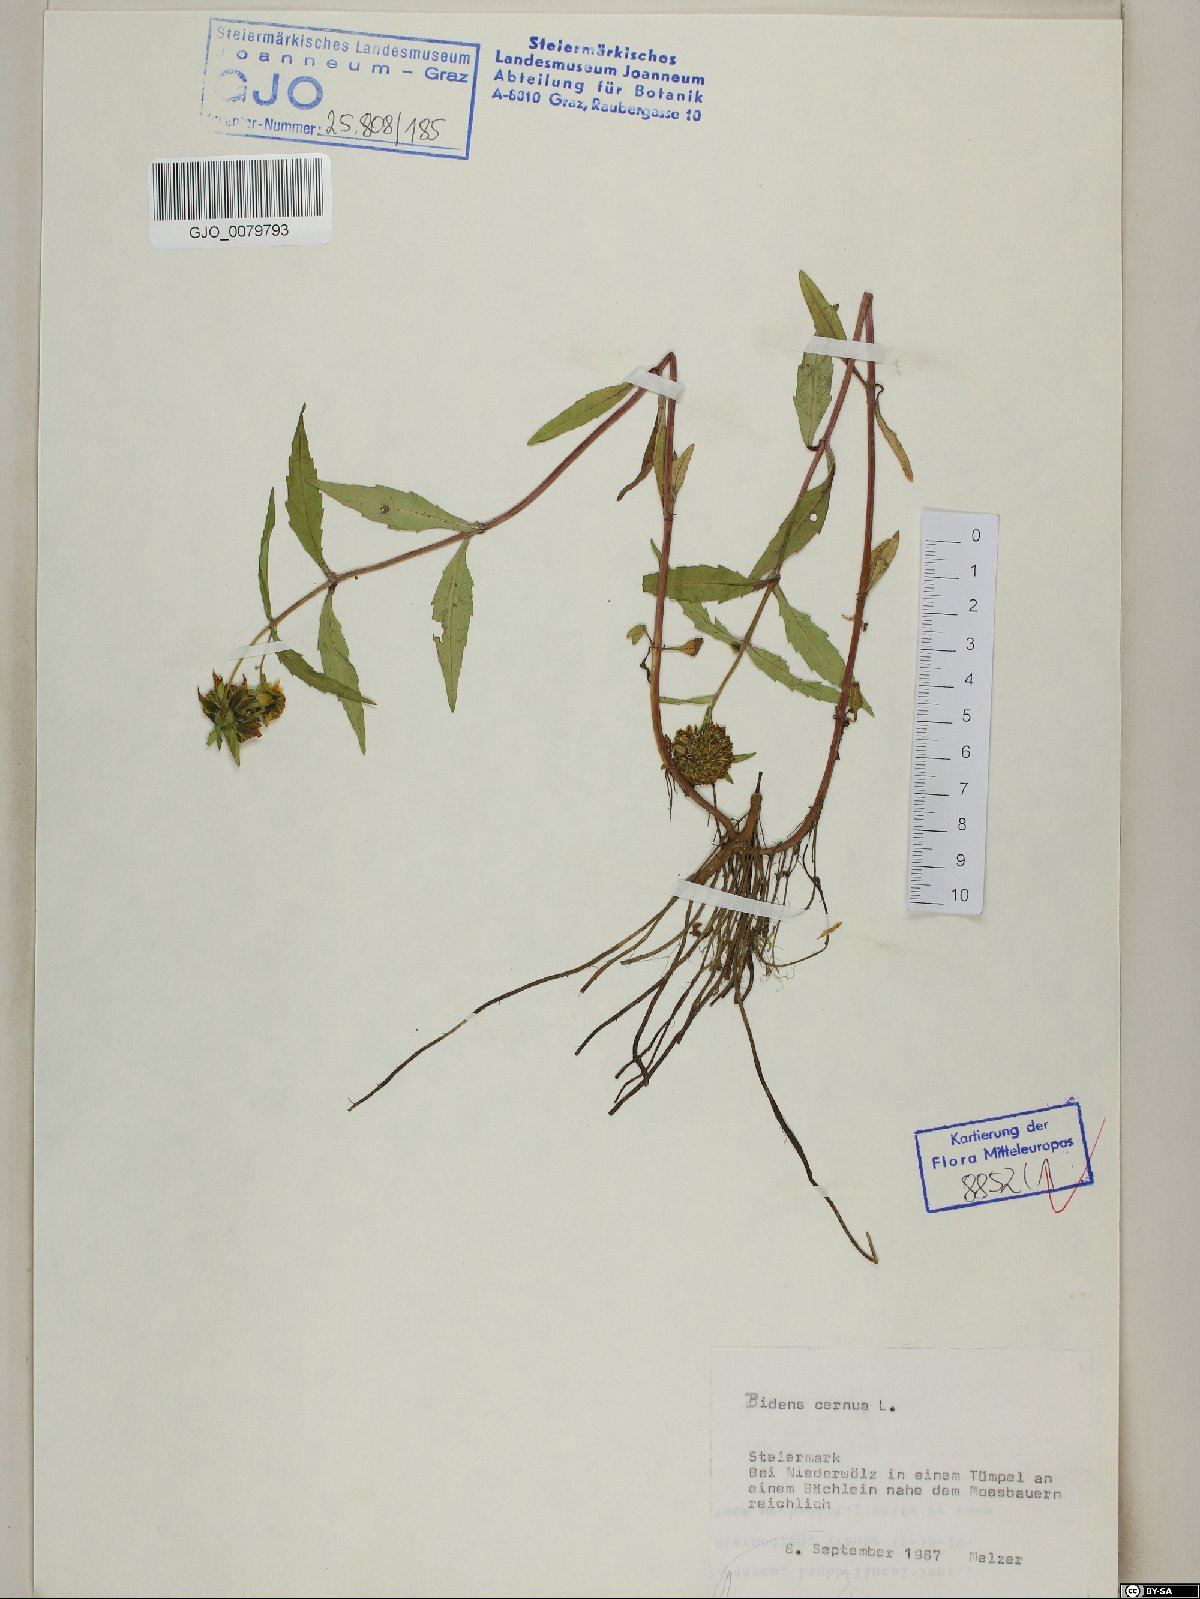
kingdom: Plantae
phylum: Tracheophyta
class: Magnoliopsida
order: Asterales
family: Asteraceae
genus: Bidens
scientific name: Bidens cernua
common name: Nodding bur-marigold
